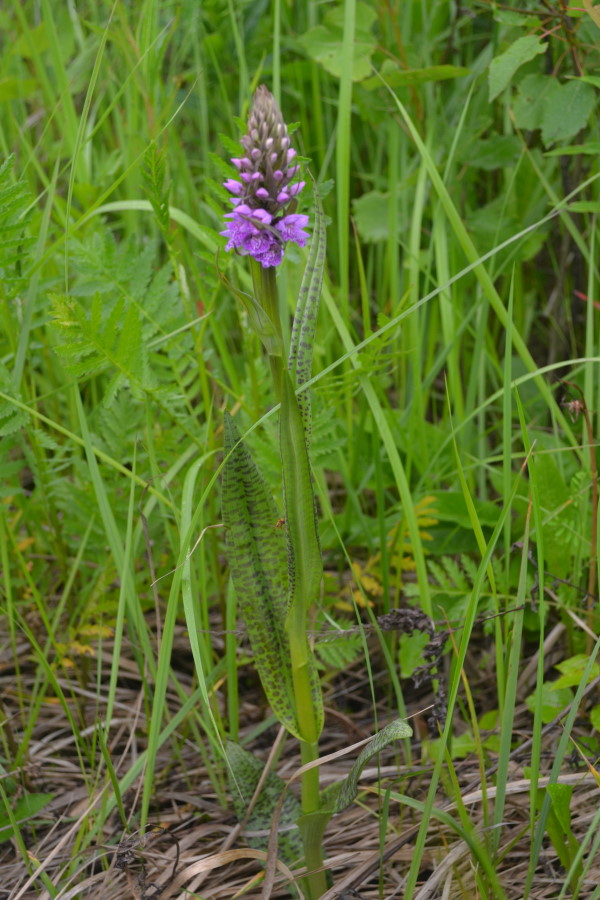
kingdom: Plantae
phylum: Tracheophyta
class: Liliopsida
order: Asparagales
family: Orchidaceae
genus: Dactylorhiza
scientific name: Dactylorhiza maculata
